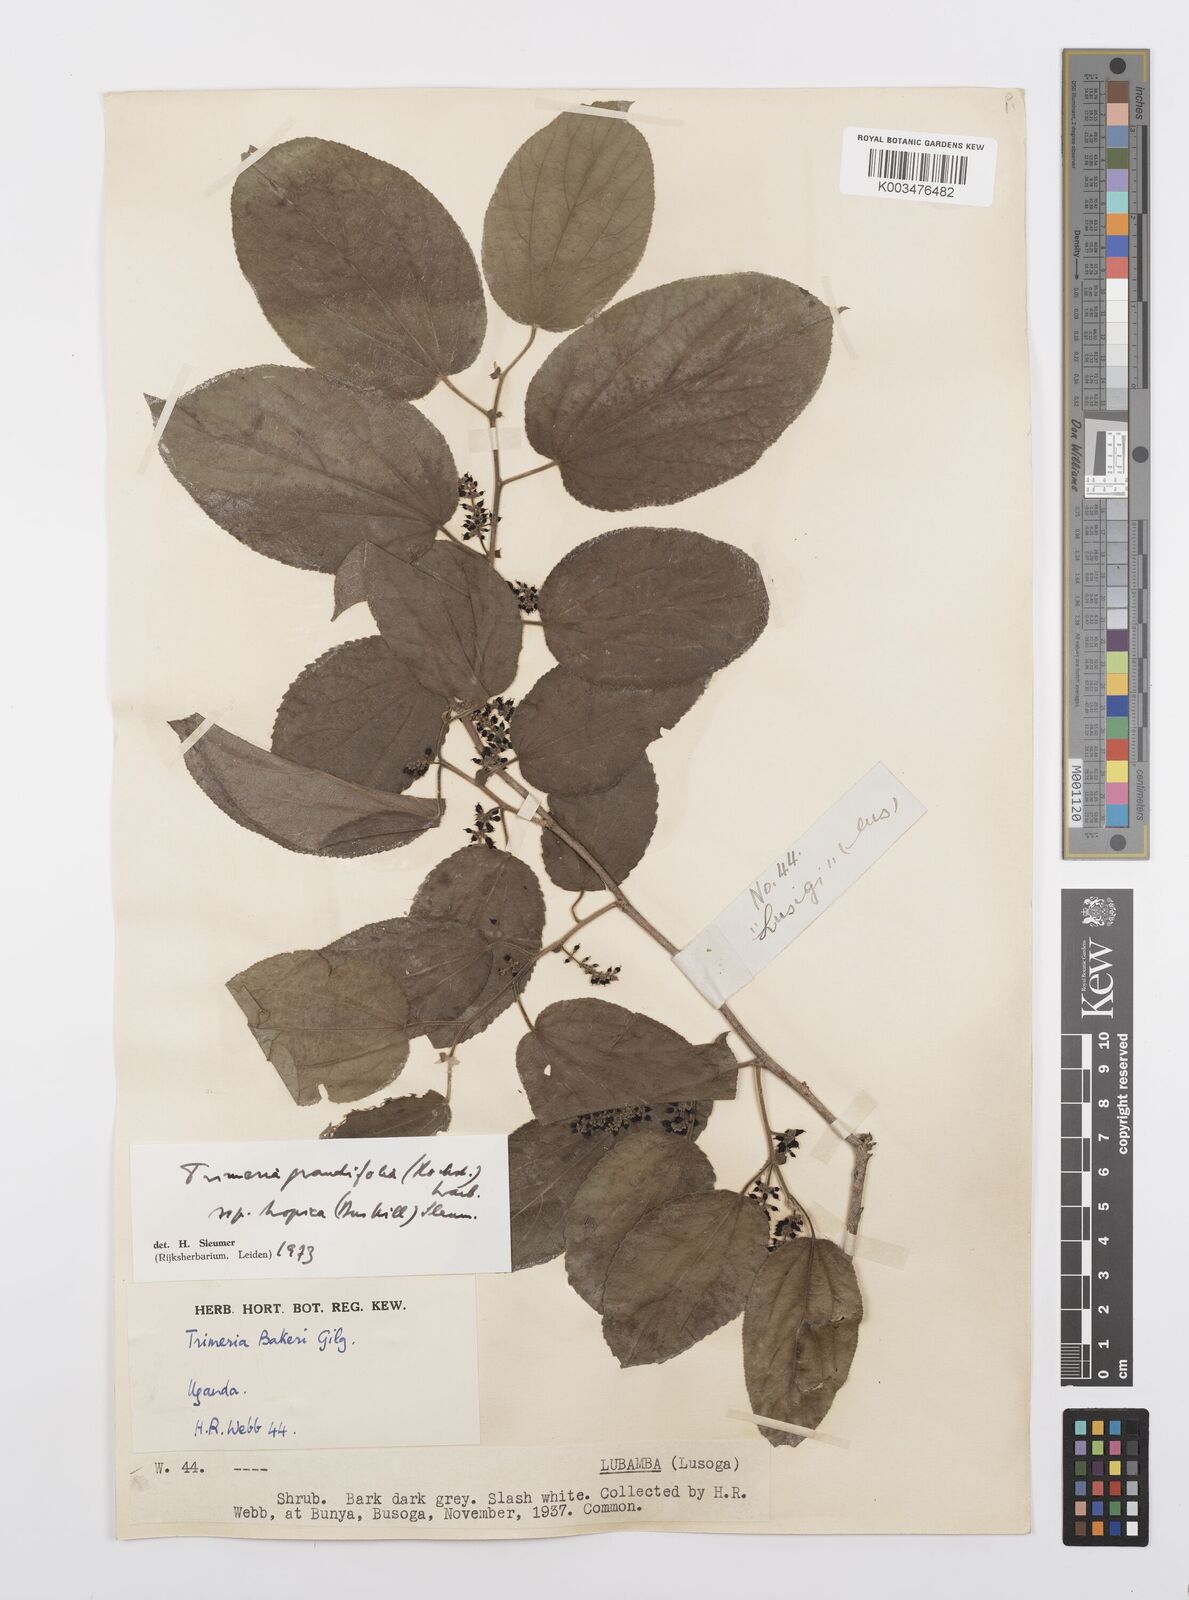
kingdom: Plantae
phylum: Tracheophyta
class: Magnoliopsida
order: Malpighiales
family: Salicaceae
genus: Trimeria
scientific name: Trimeria grandifolia
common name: Wild mulberry
